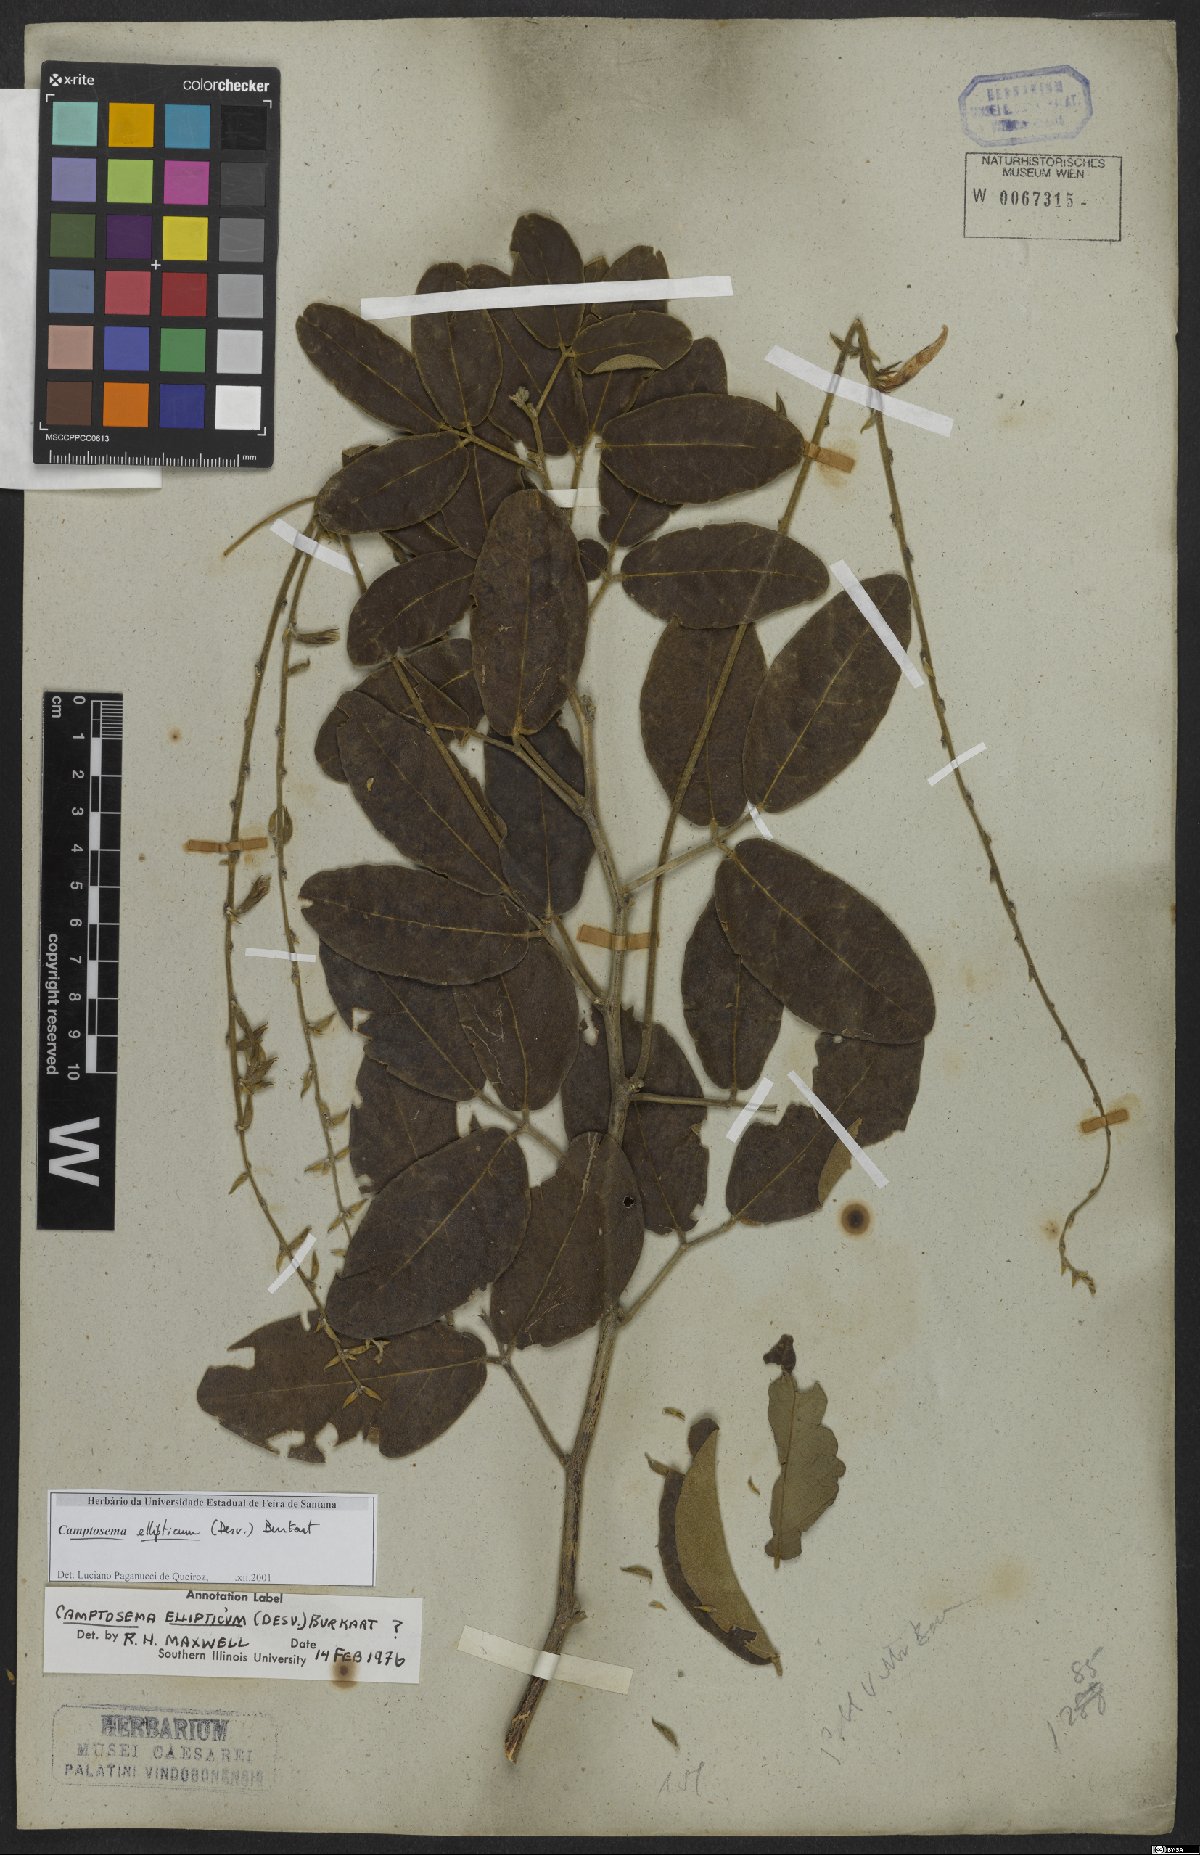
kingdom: Plantae
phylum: Tracheophyta
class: Magnoliopsida
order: Fabales
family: Fabaceae
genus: Cerradicola
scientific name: Cerradicola elliptica
